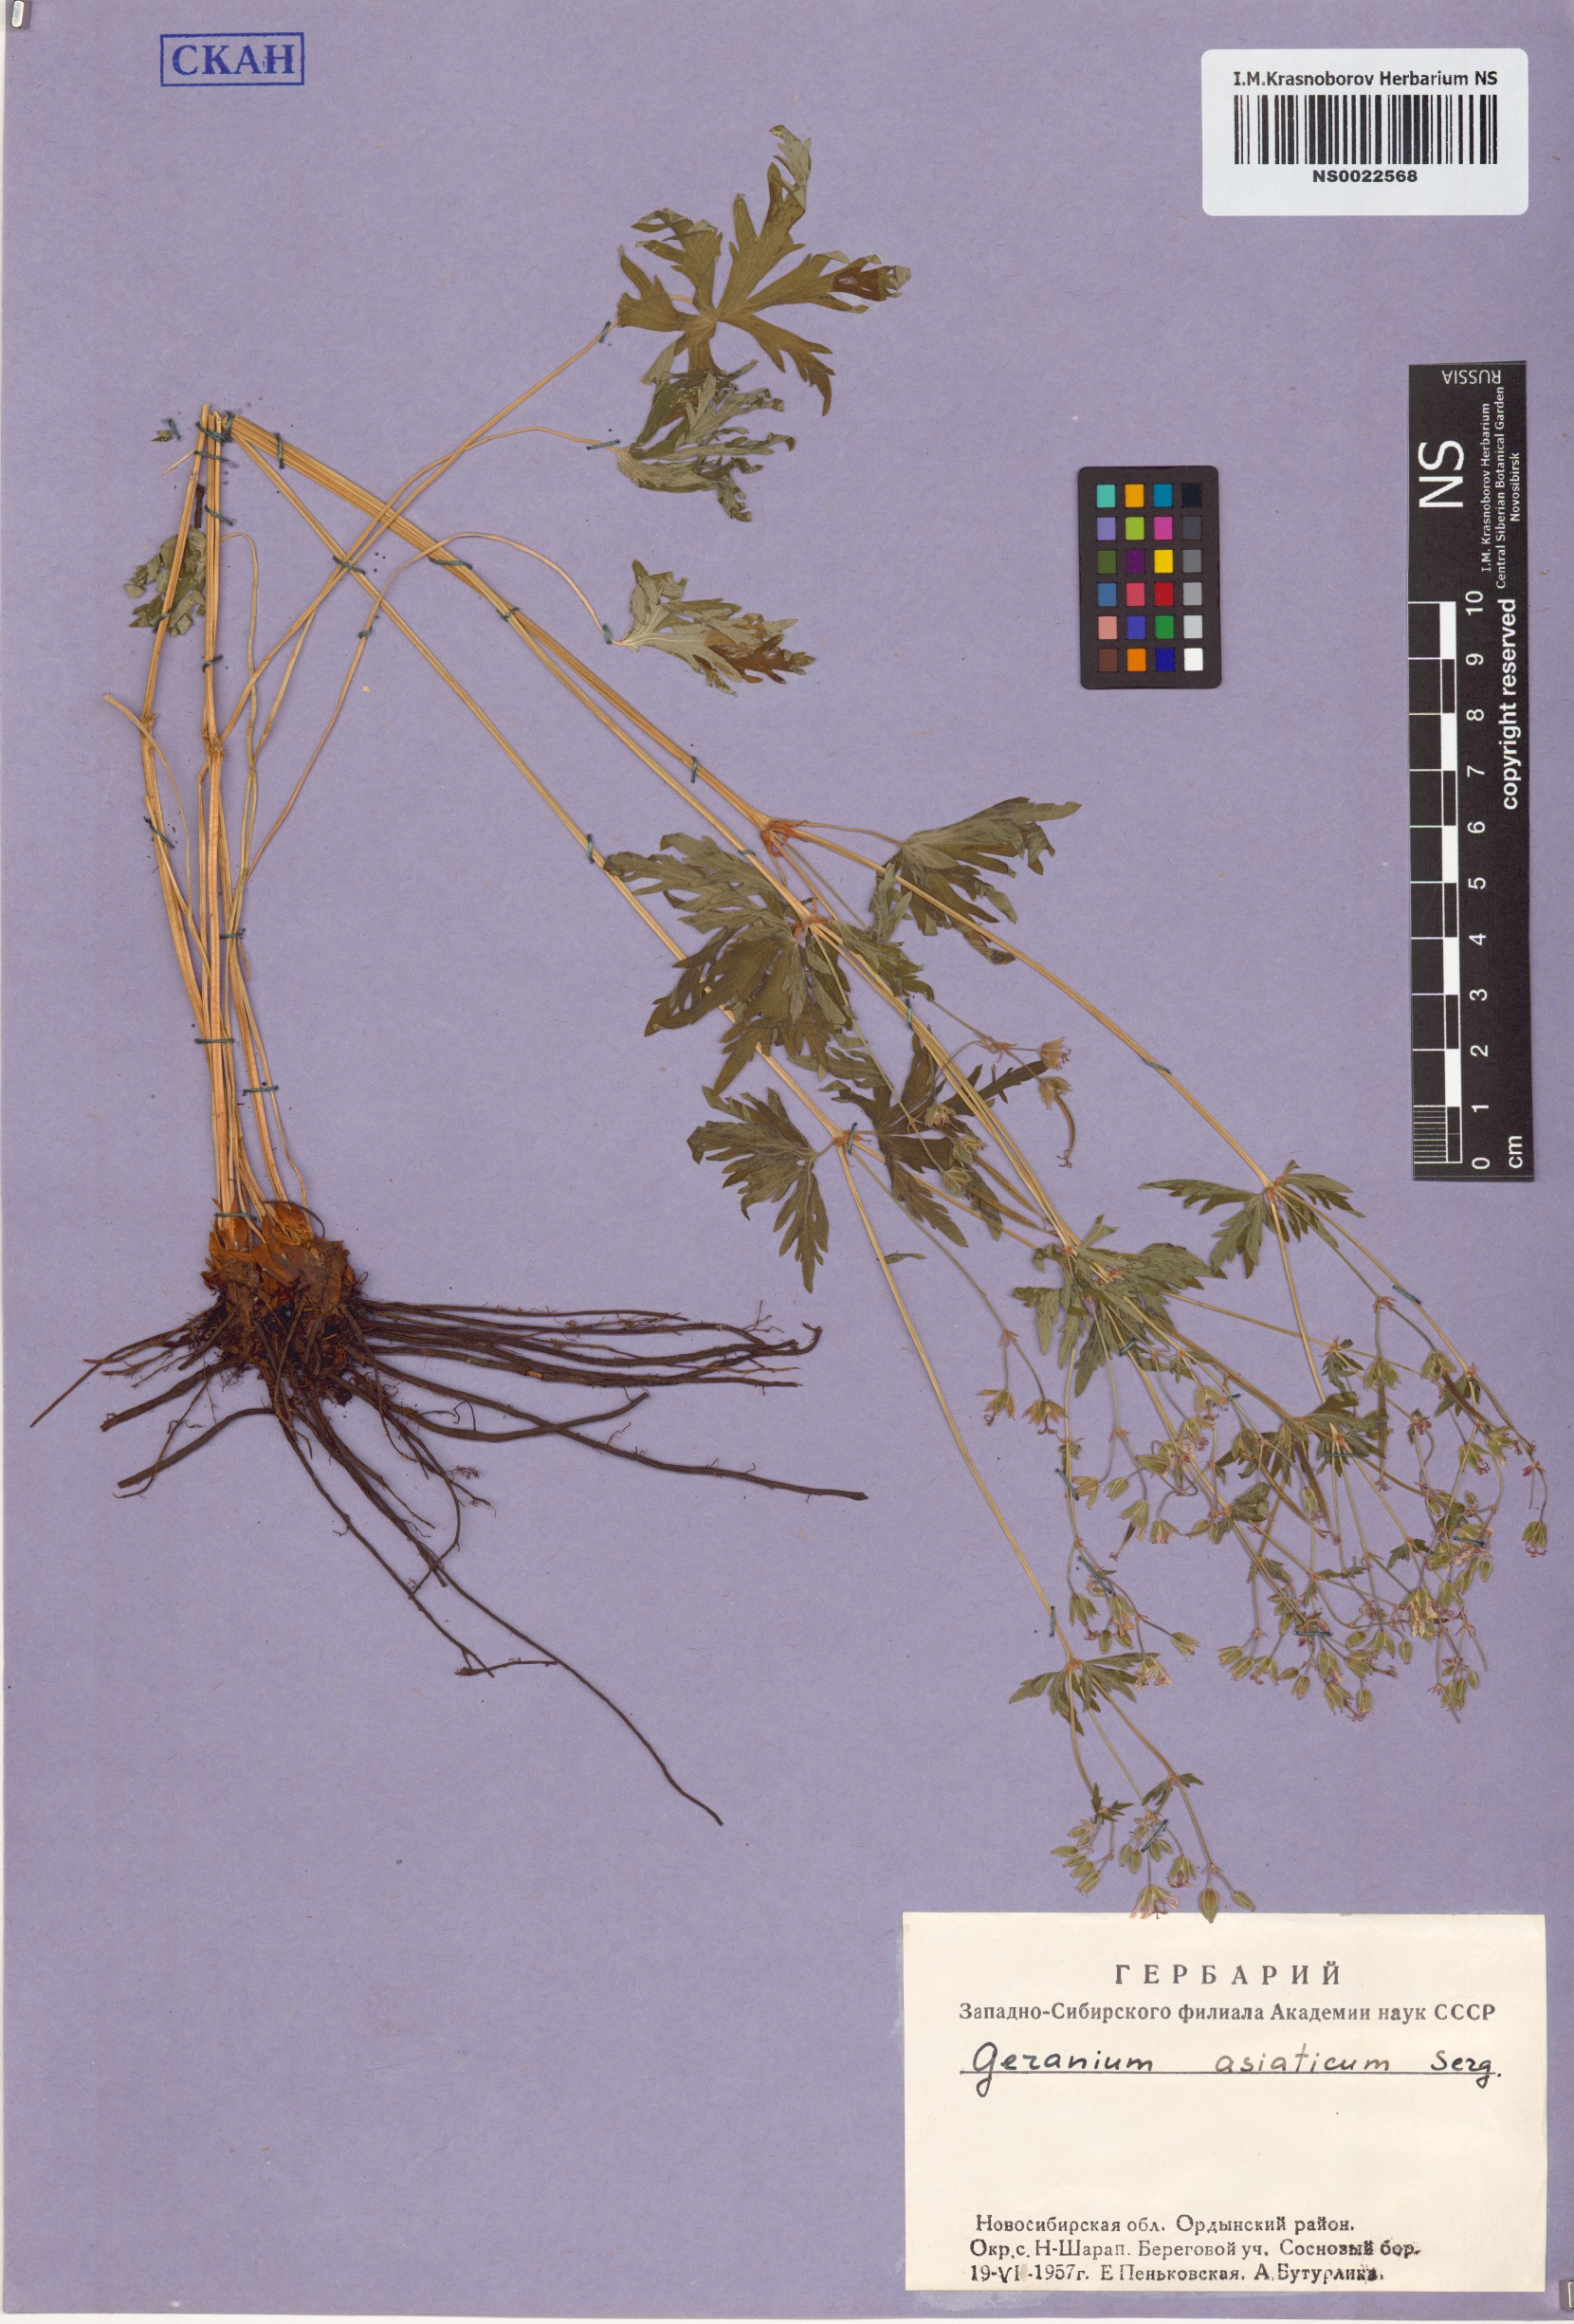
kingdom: Plantae
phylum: Tracheophyta
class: Magnoliopsida
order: Geraniales
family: Geraniaceae
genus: Geranium
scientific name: Geranium pseudosibiricum
